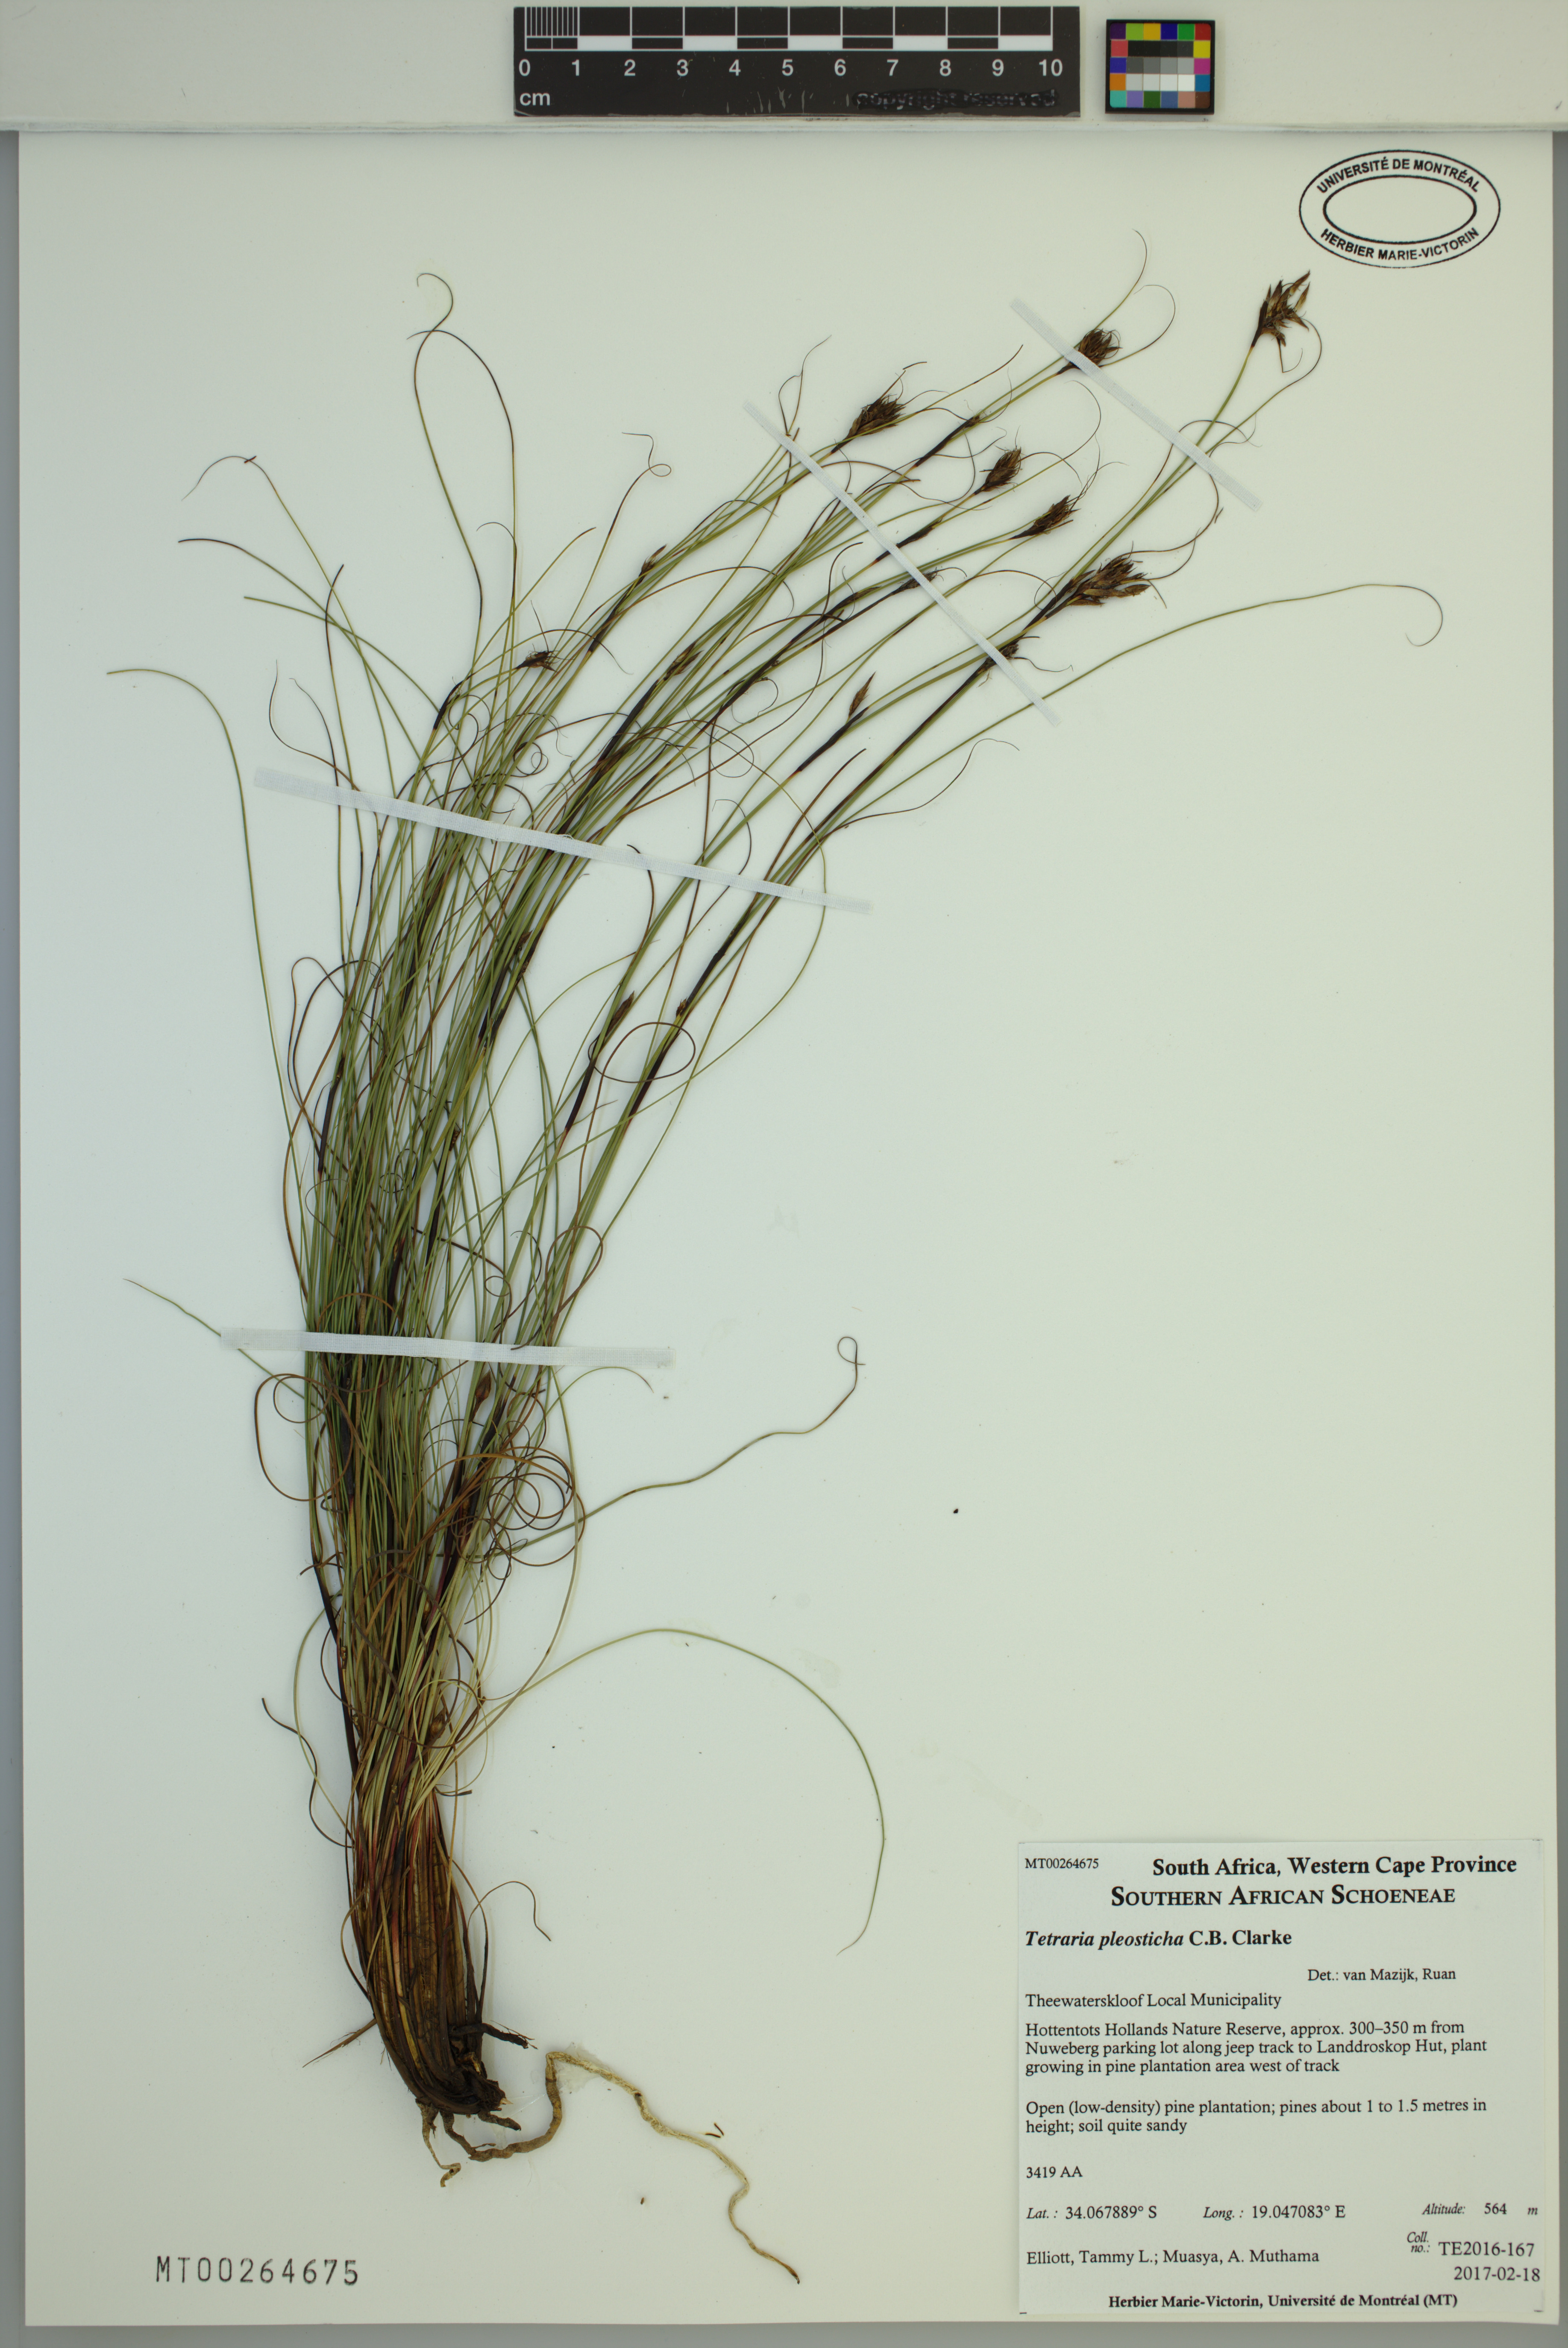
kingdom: Plantae
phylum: Tracheophyta
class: Liliopsida
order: Poales
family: Cyperaceae
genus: Tetraria
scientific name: Tetraria pleosticha
